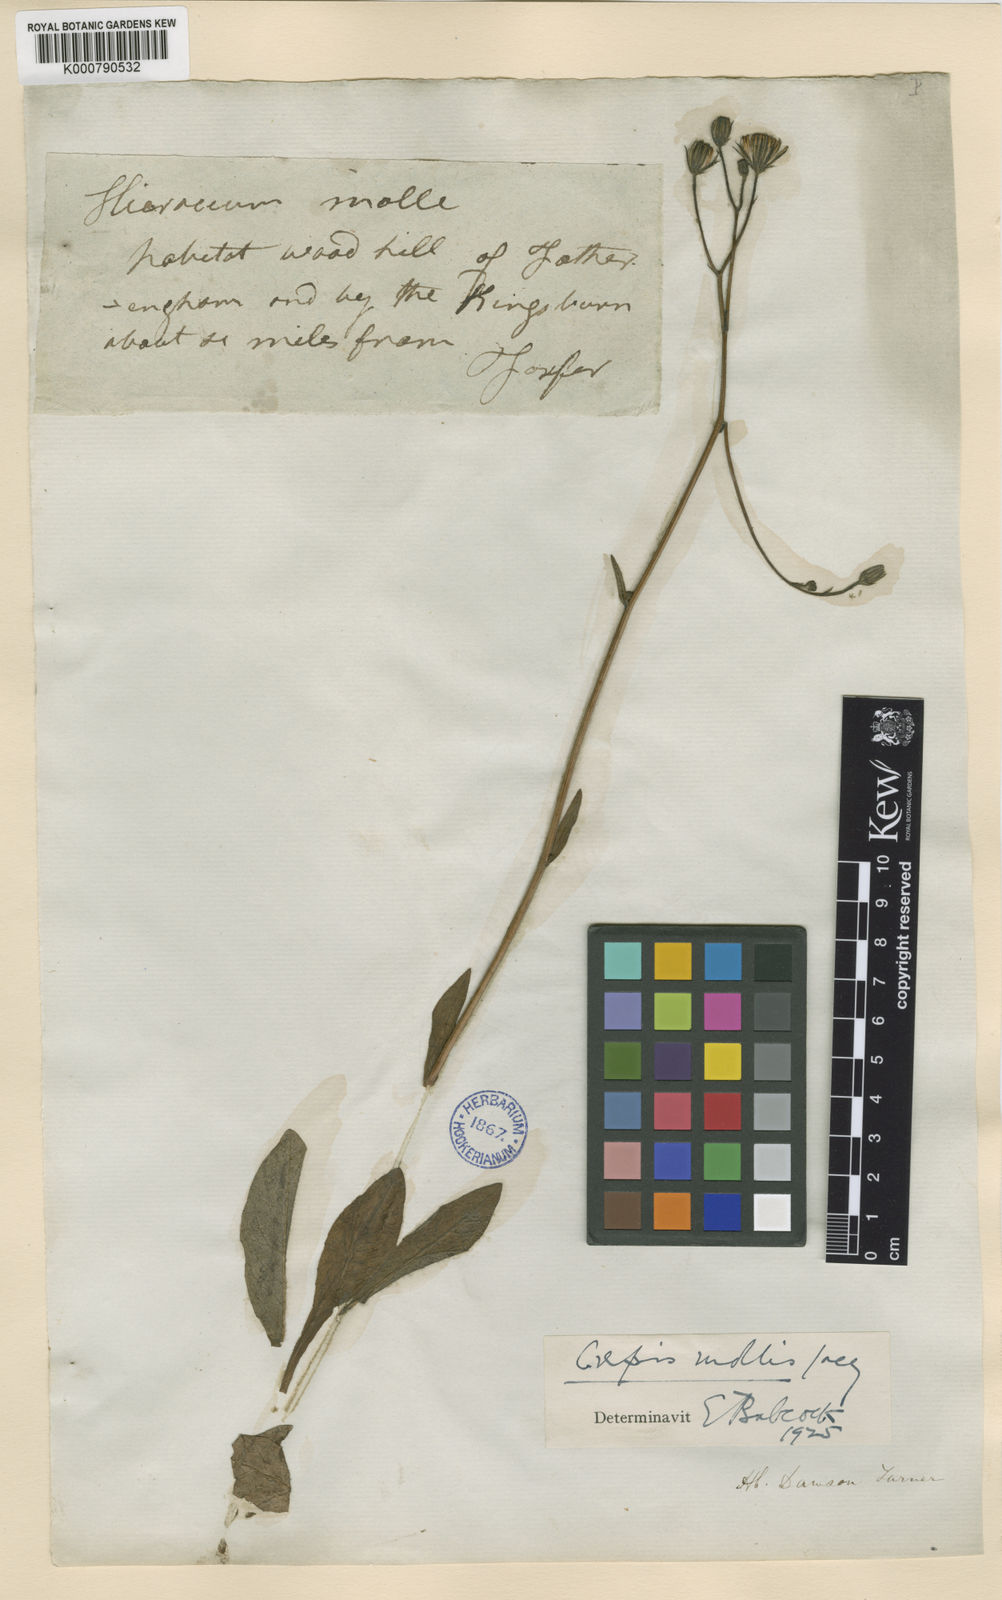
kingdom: Plantae
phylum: Tracheophyta
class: Magnoliopsida
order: Asterales
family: Asteraceae
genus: Crepis
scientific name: Crepis mollis
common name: Northern hawk's-beard
